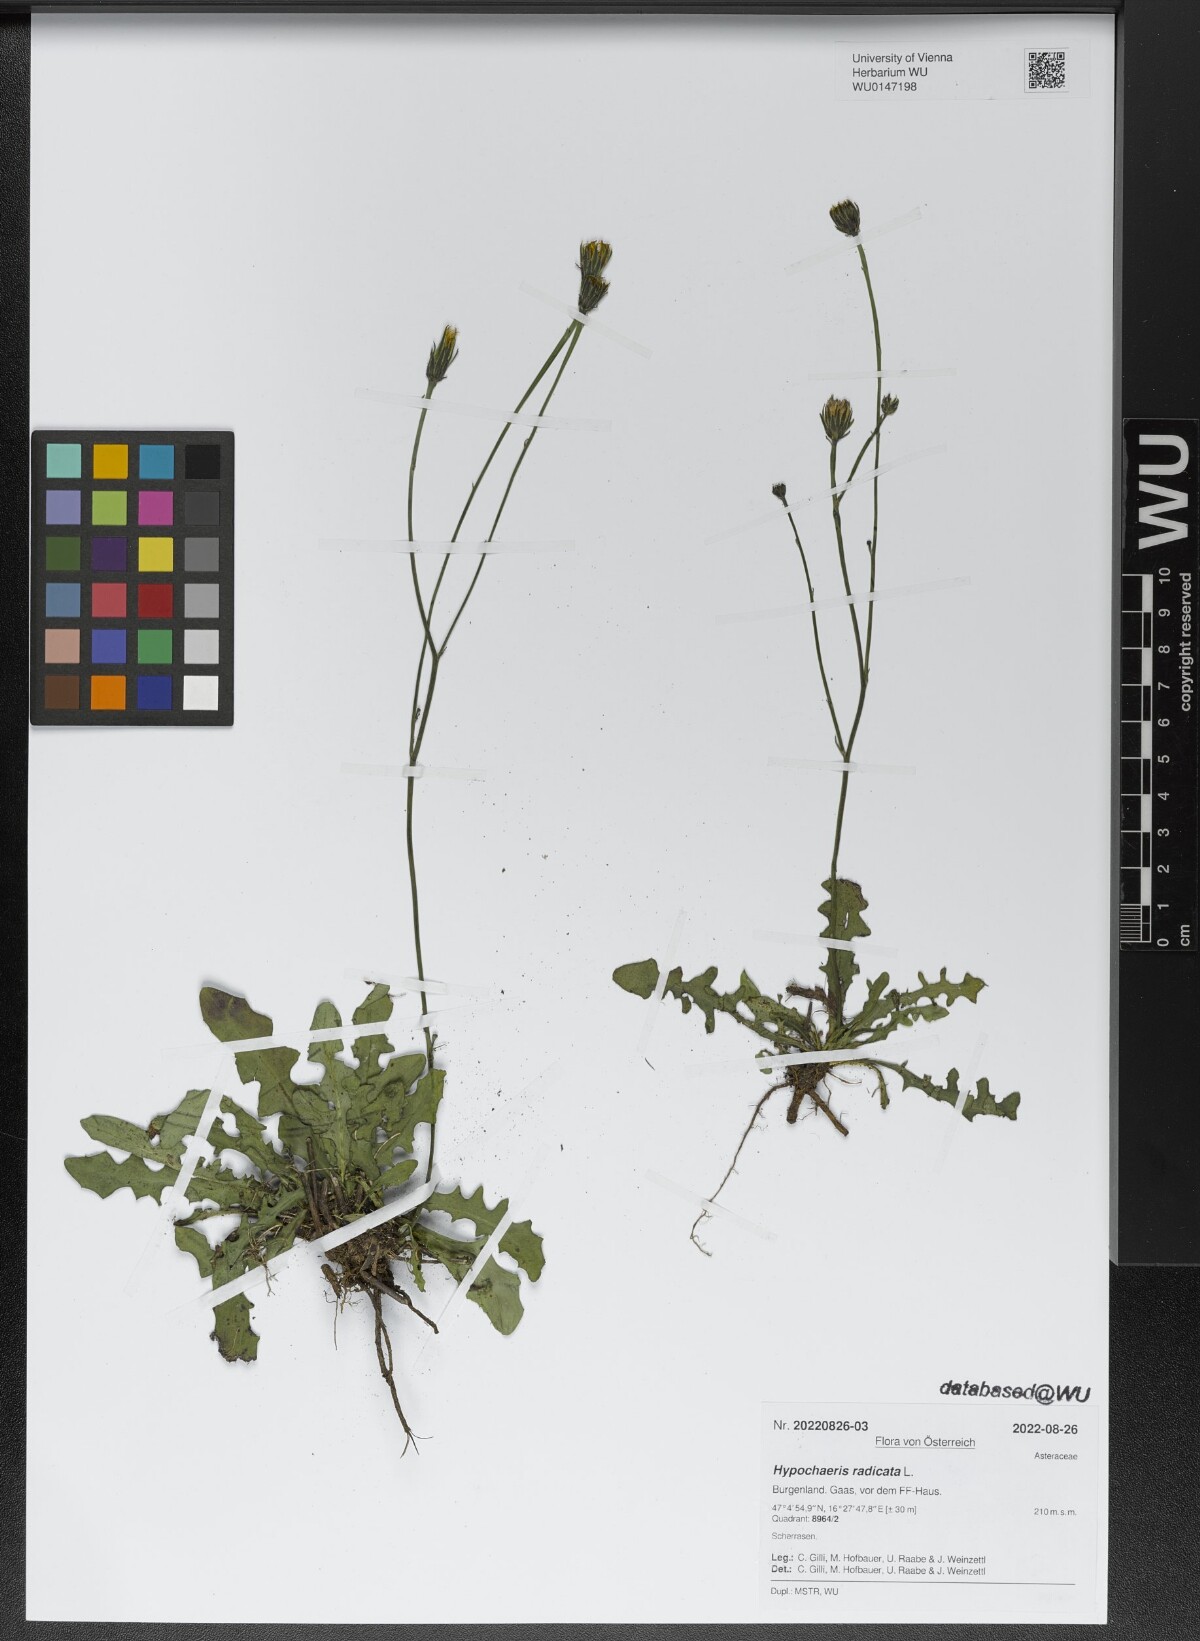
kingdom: Plantae
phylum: Tracheophyta
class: Magnoliopsida
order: Asterales
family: Asteraceae
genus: Hypochaeris
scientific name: Hypochaeris radicata
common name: Flatweed
